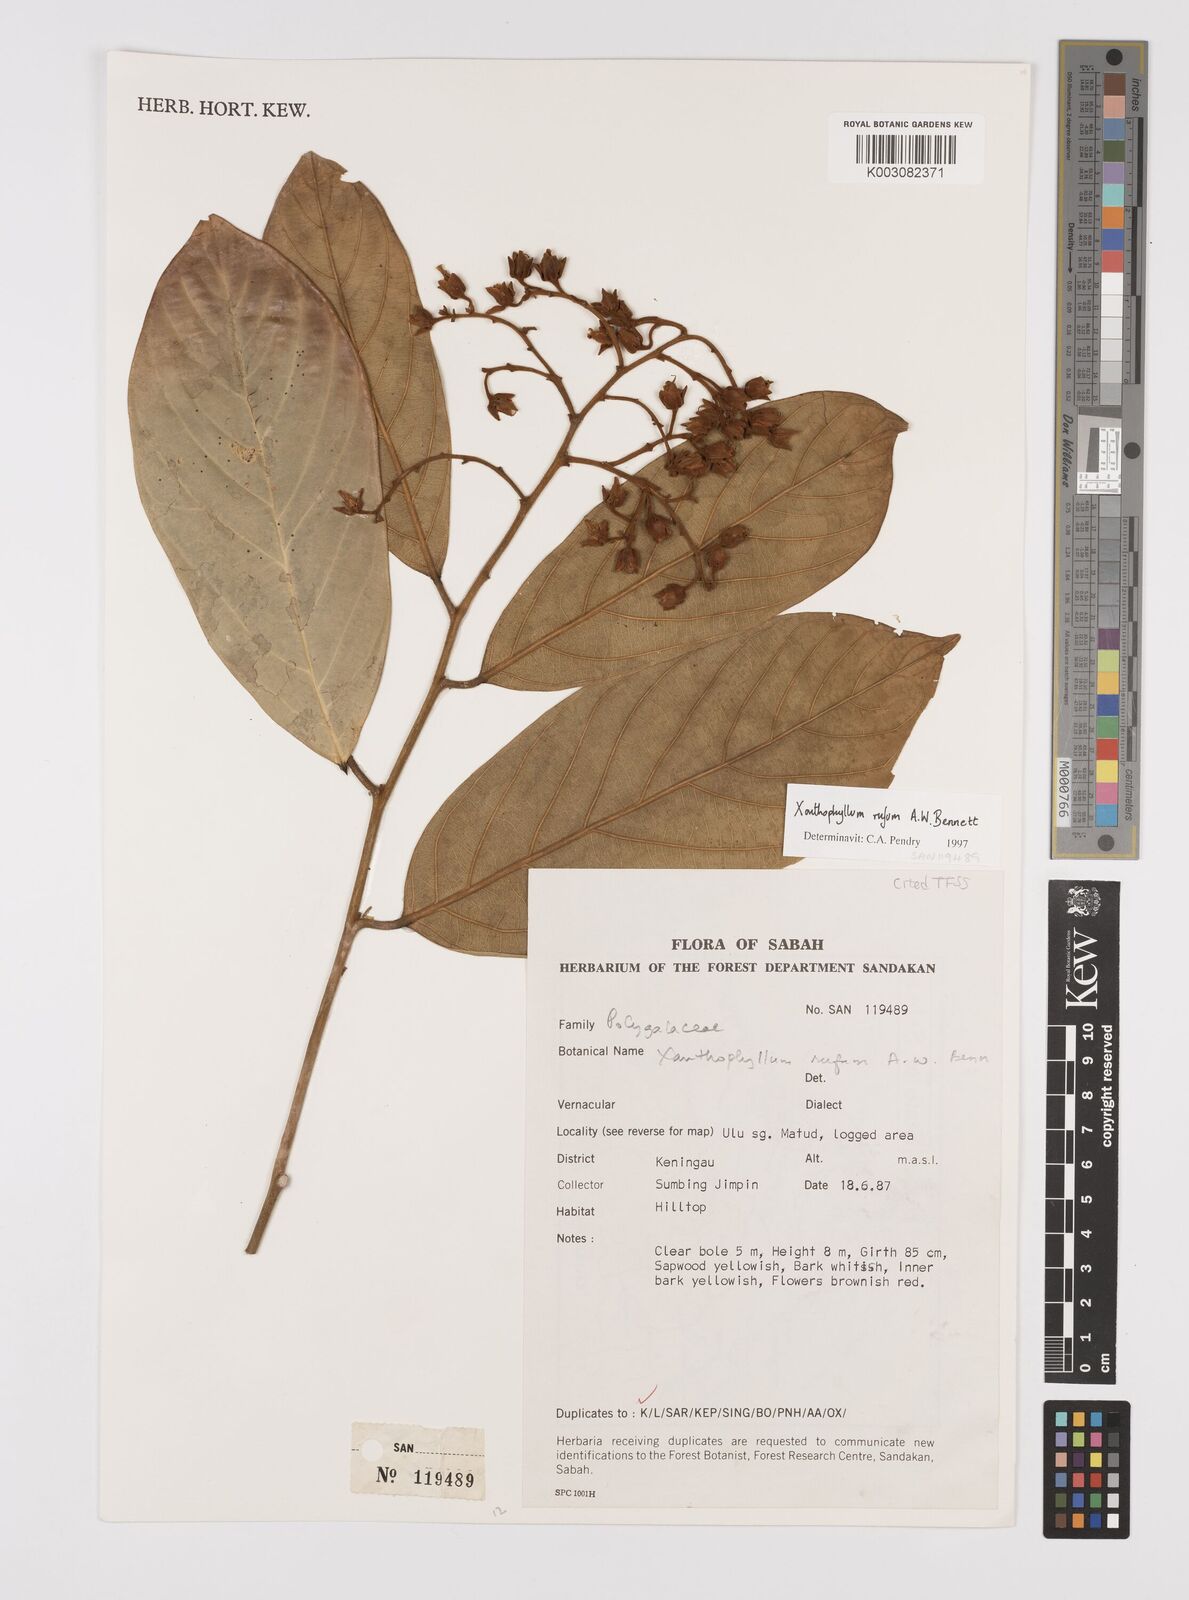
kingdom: Plantae
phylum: Tracheophyta
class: Magnoliopsida
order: Fabales
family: Polygalaceae
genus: Xanthophyllum
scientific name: Xanthophyllum rufum
